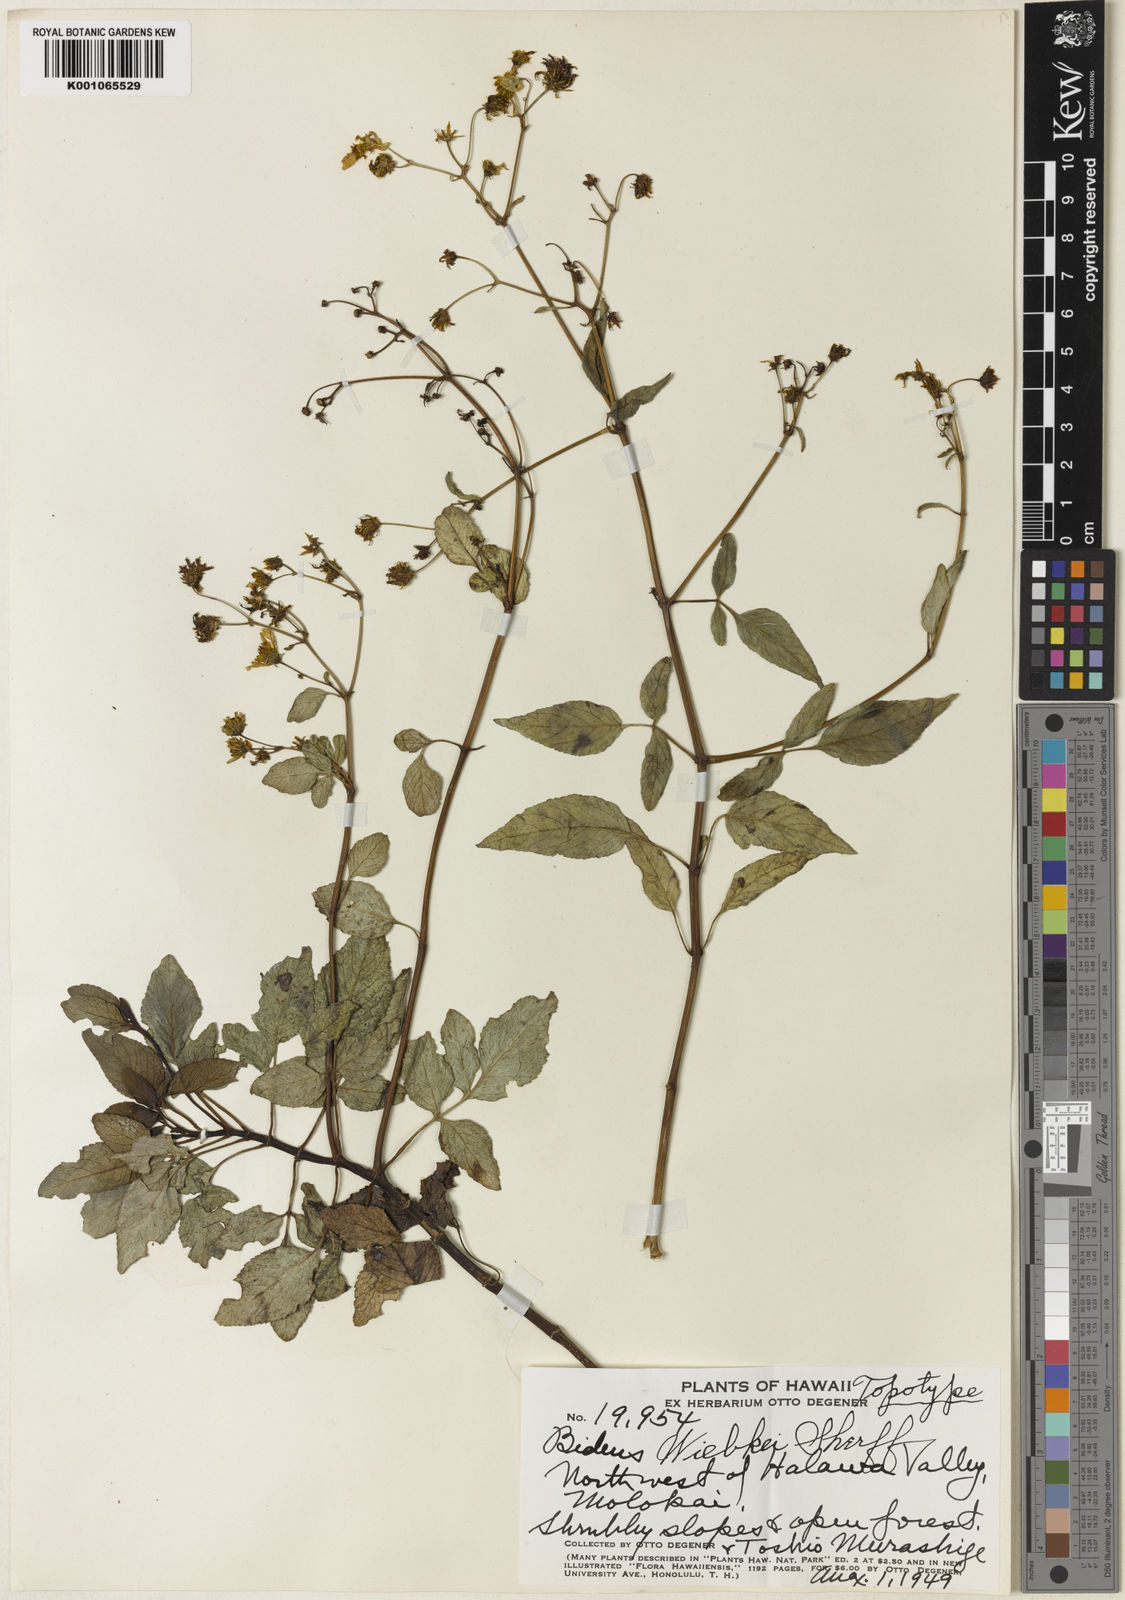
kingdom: Plantae
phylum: Tracheophyta
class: Magnoliopsida
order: Asterales
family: Asteraceae
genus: Bidens
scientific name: Bidens wiebkei
